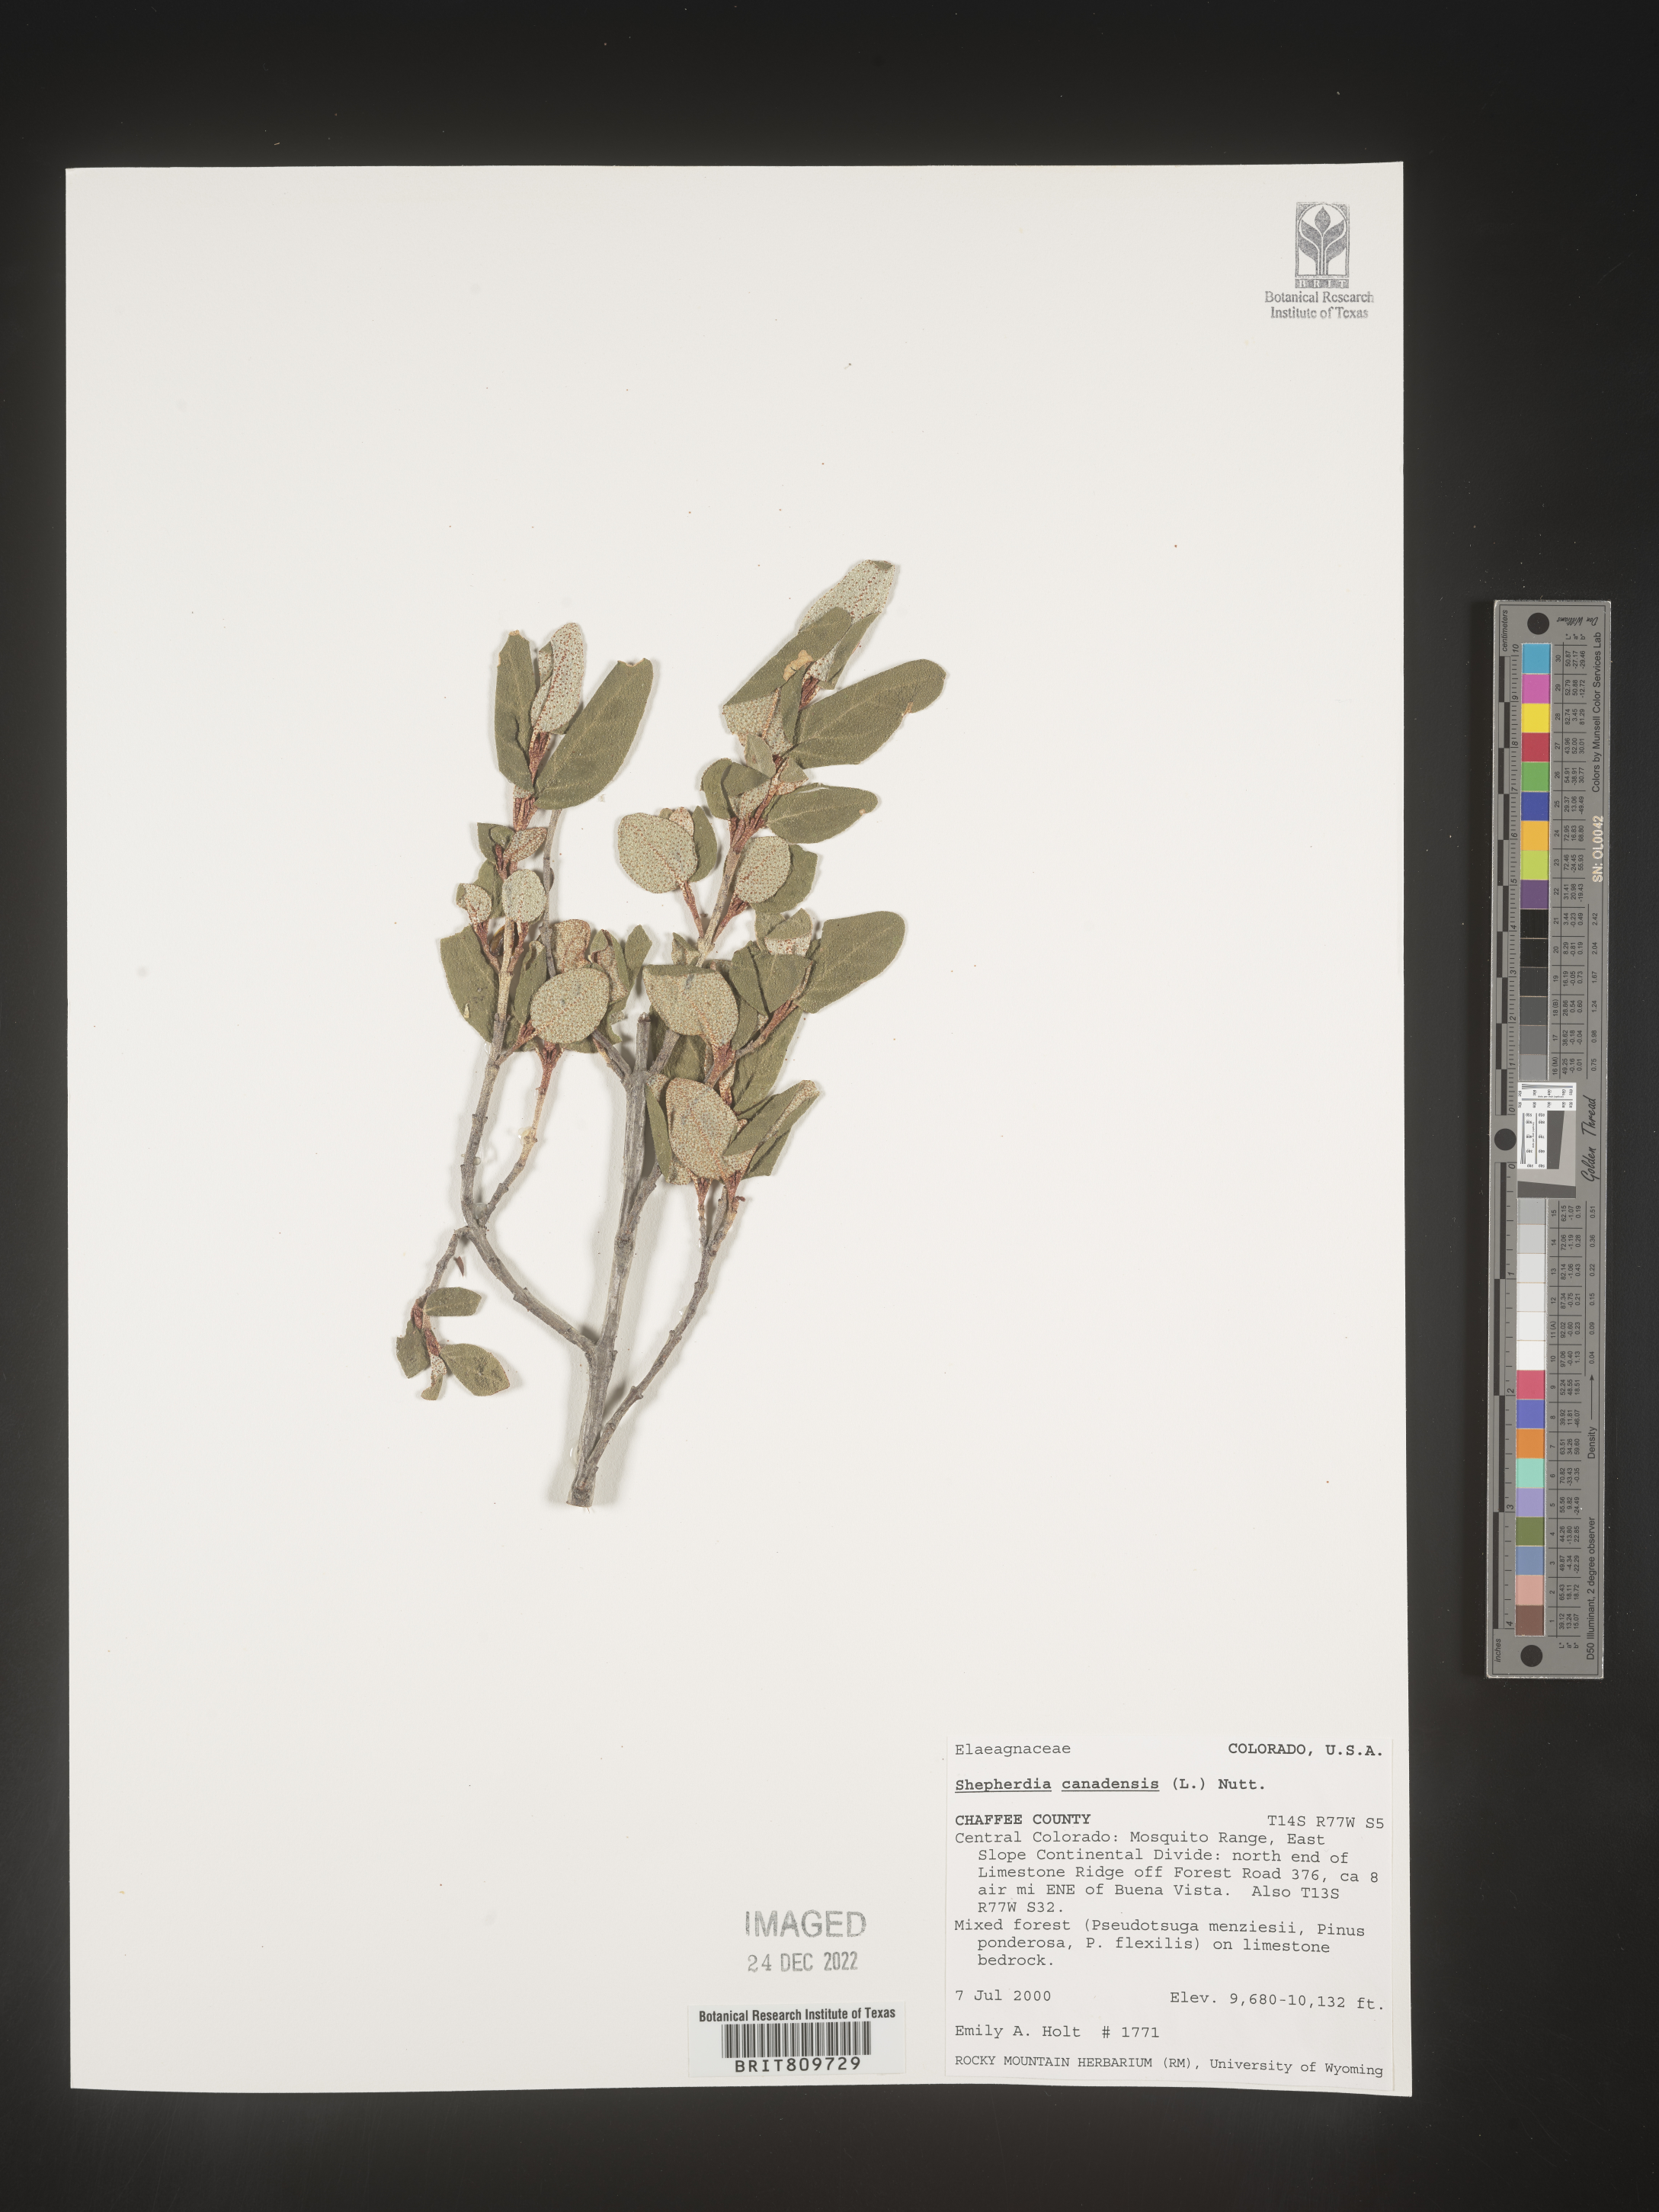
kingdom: Plantae
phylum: Tracheophyta
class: Magnoliopsida
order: Rosales
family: Elaeagnaceae
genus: Shepherdia
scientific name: Shepherdia canadensis
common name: Soapberry
